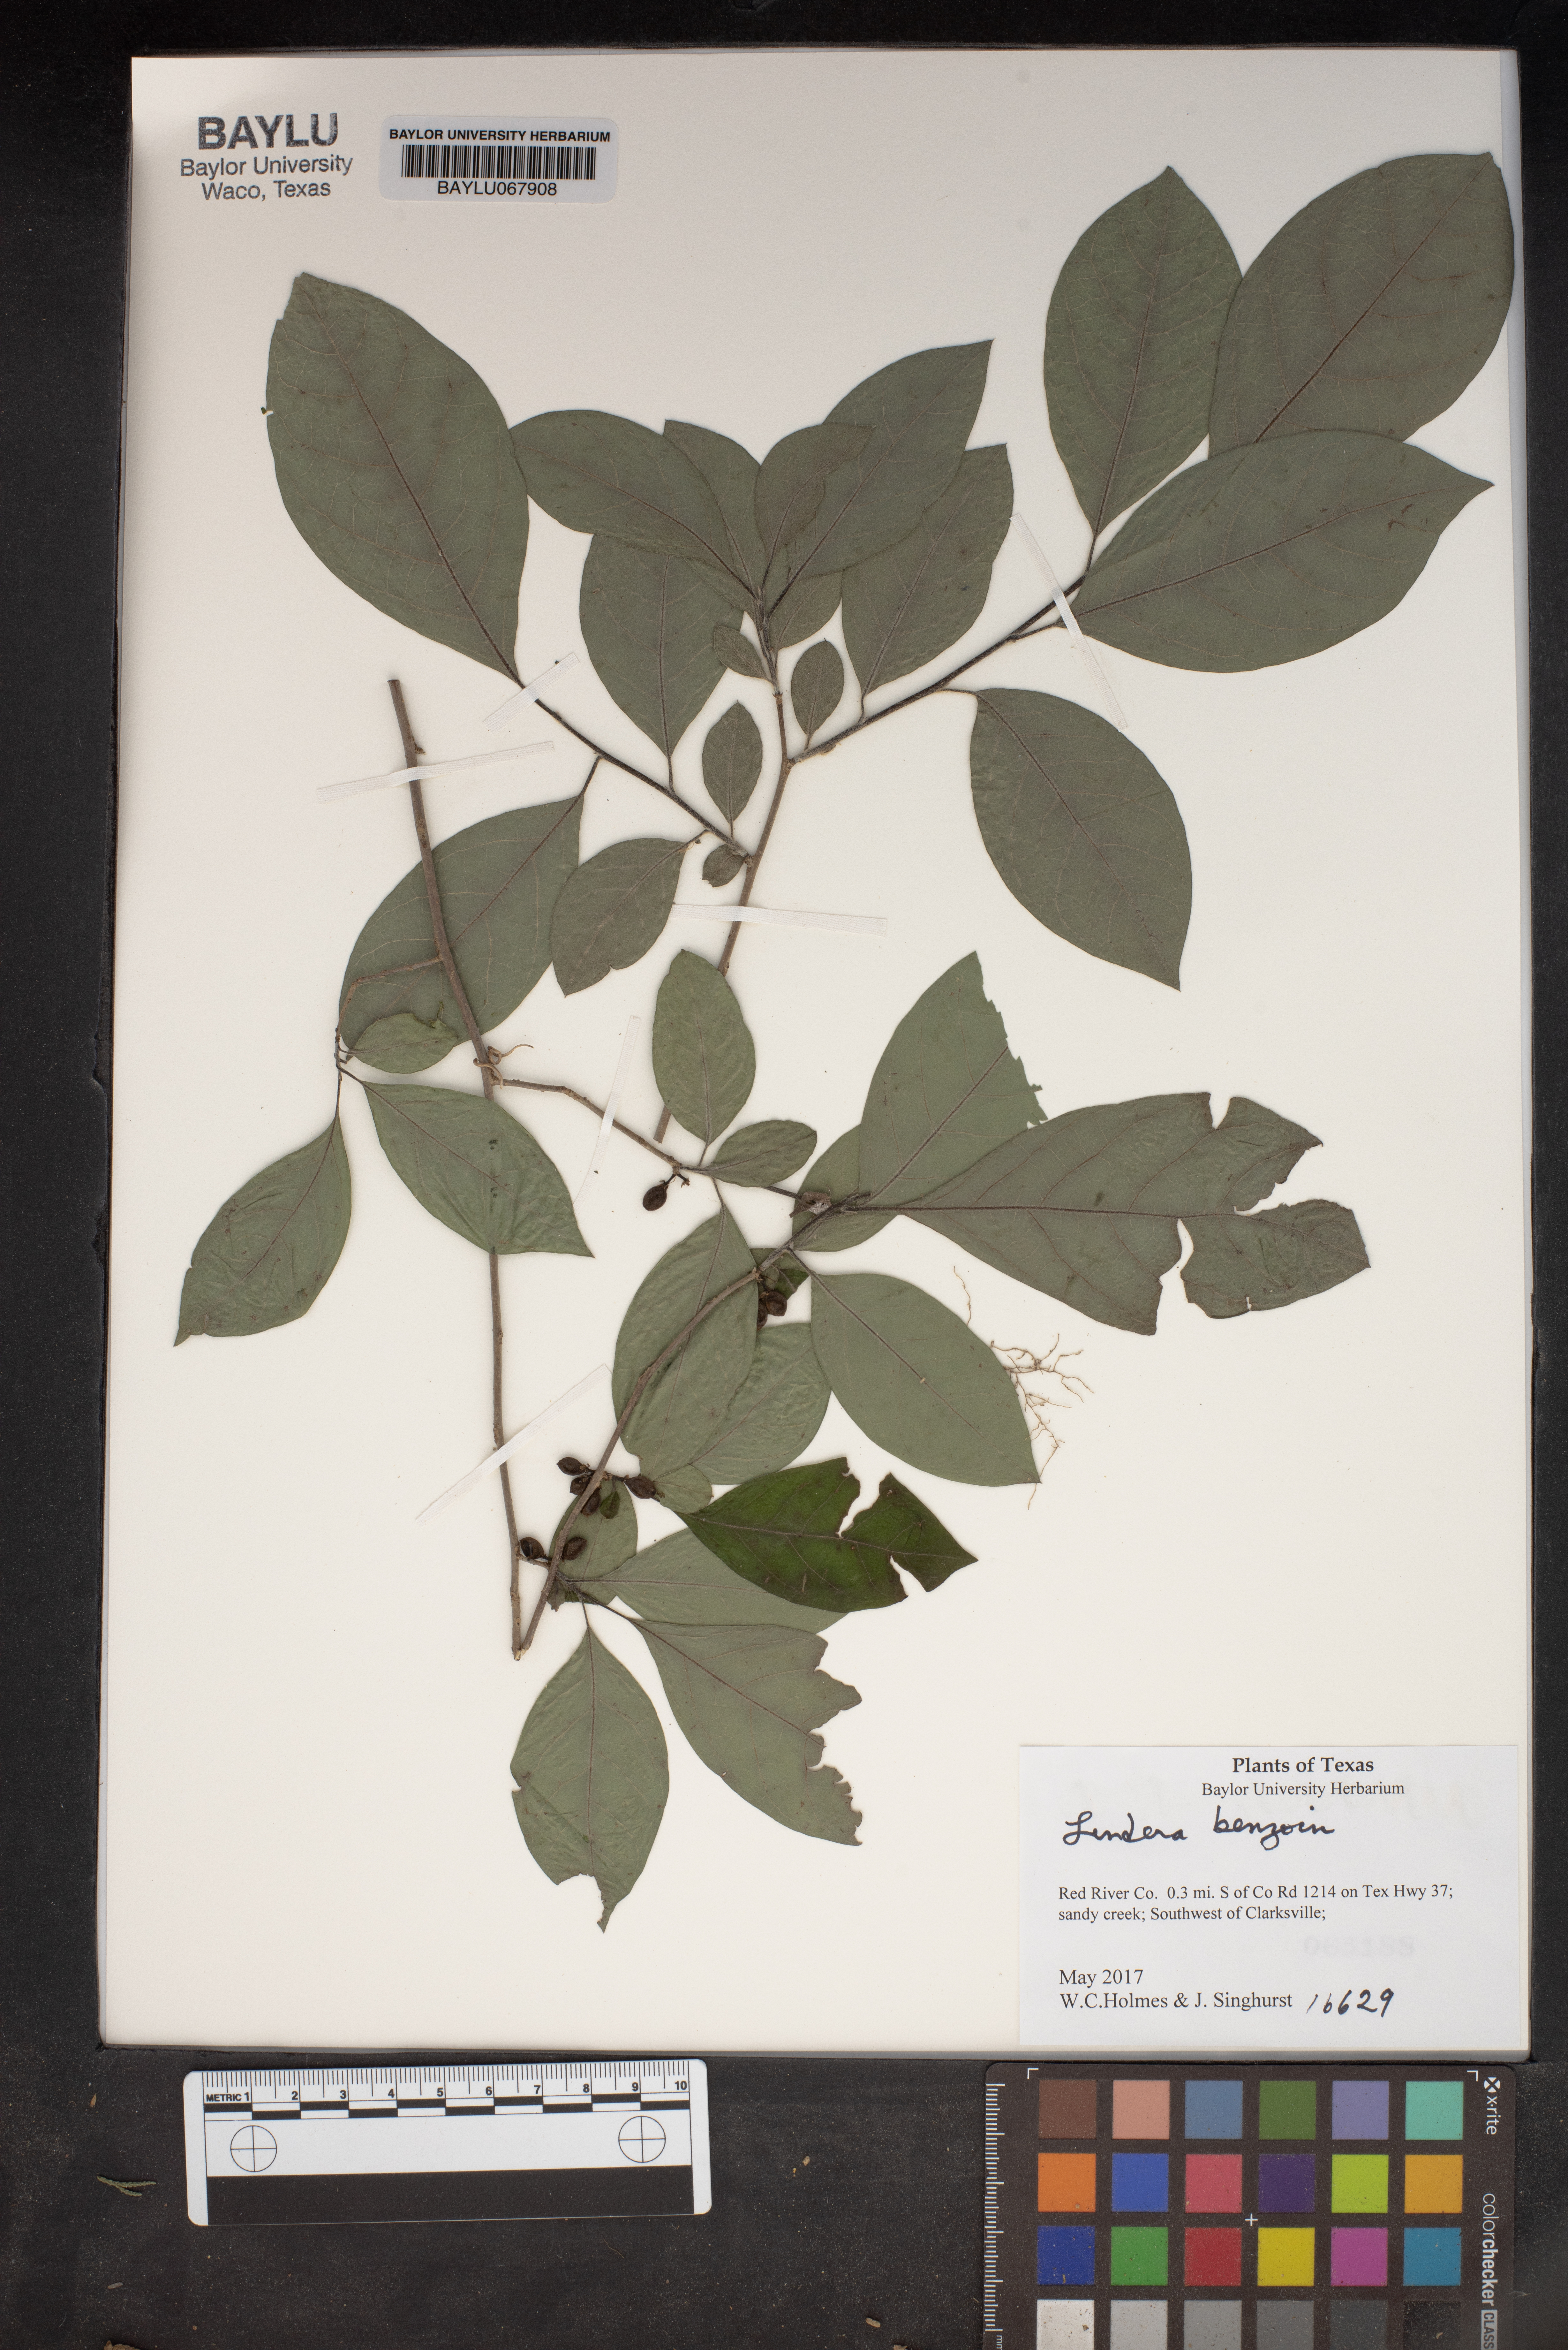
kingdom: Plantae
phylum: Tracheophyta
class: Magnoliopsida
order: Laurales
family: Lauraceae
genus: Lindera
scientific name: Lindera benzoin
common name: Spicebush
